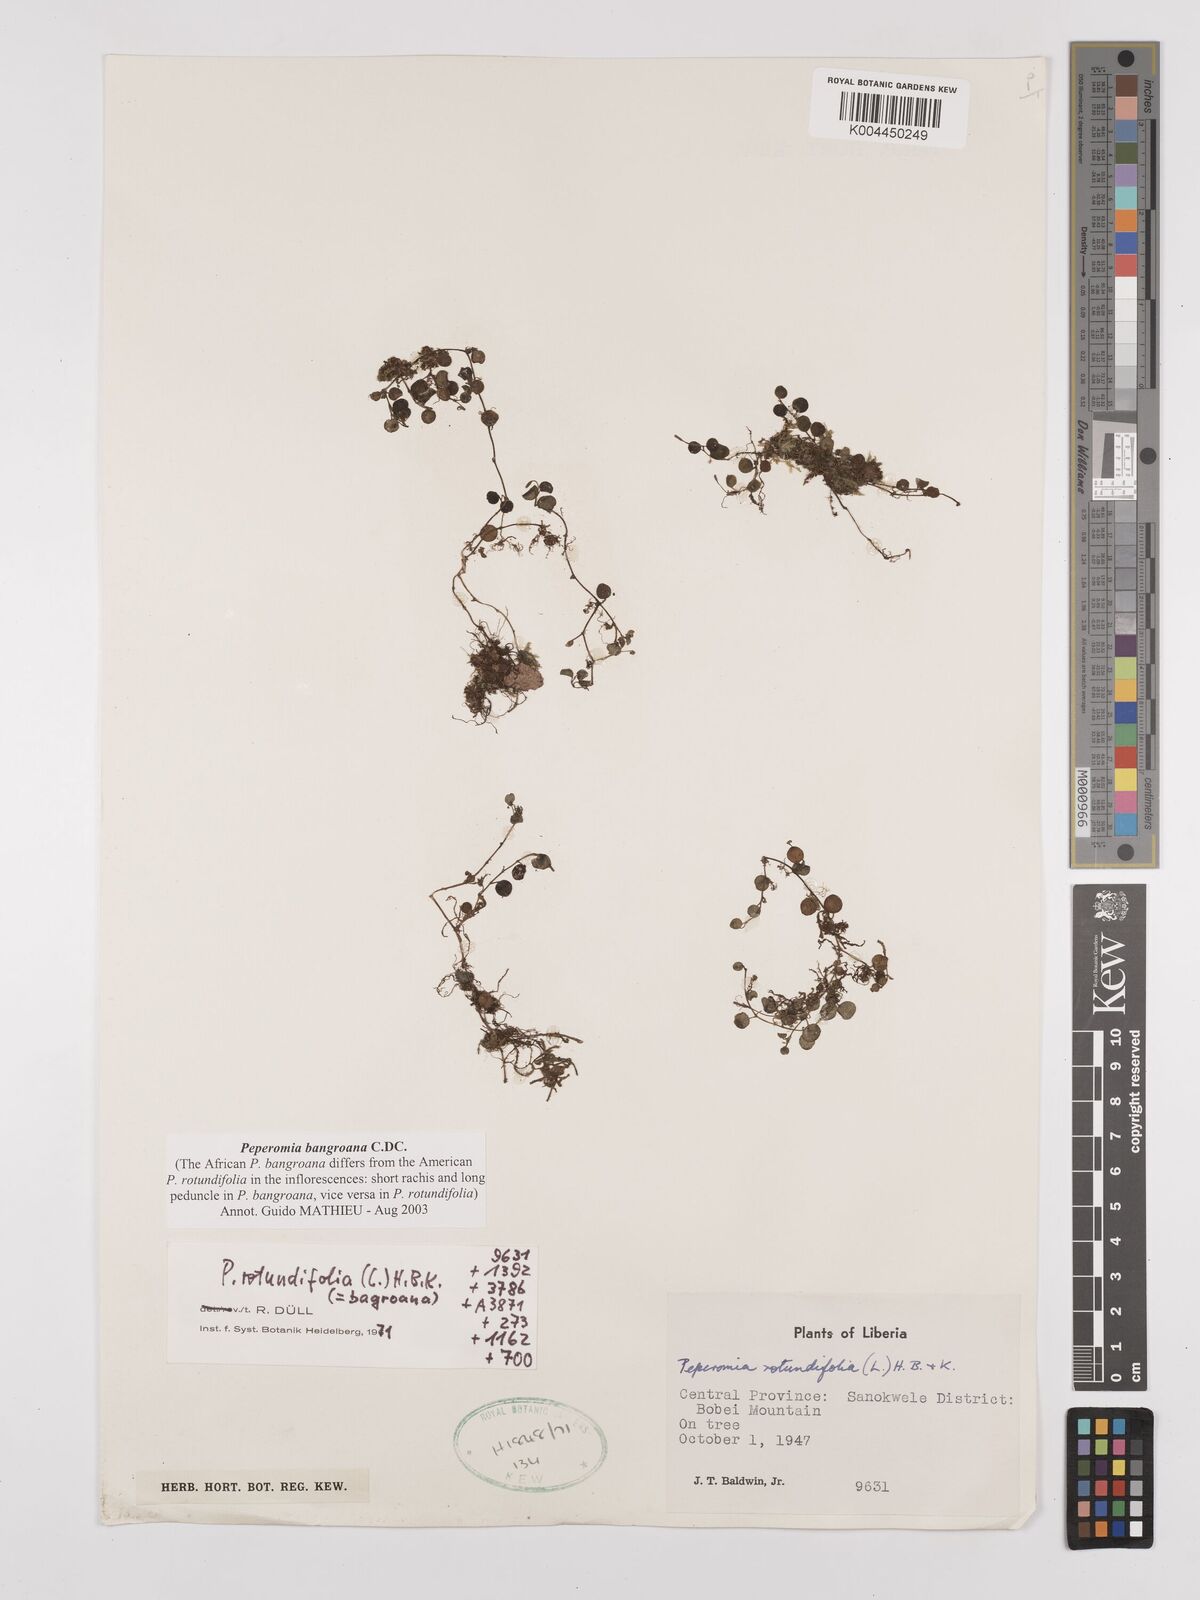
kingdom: Plantae
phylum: Tracheophyta
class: Magnoliopsida
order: Piperales
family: Piperaceae
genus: Peperomia
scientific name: Peperomia bangroana
